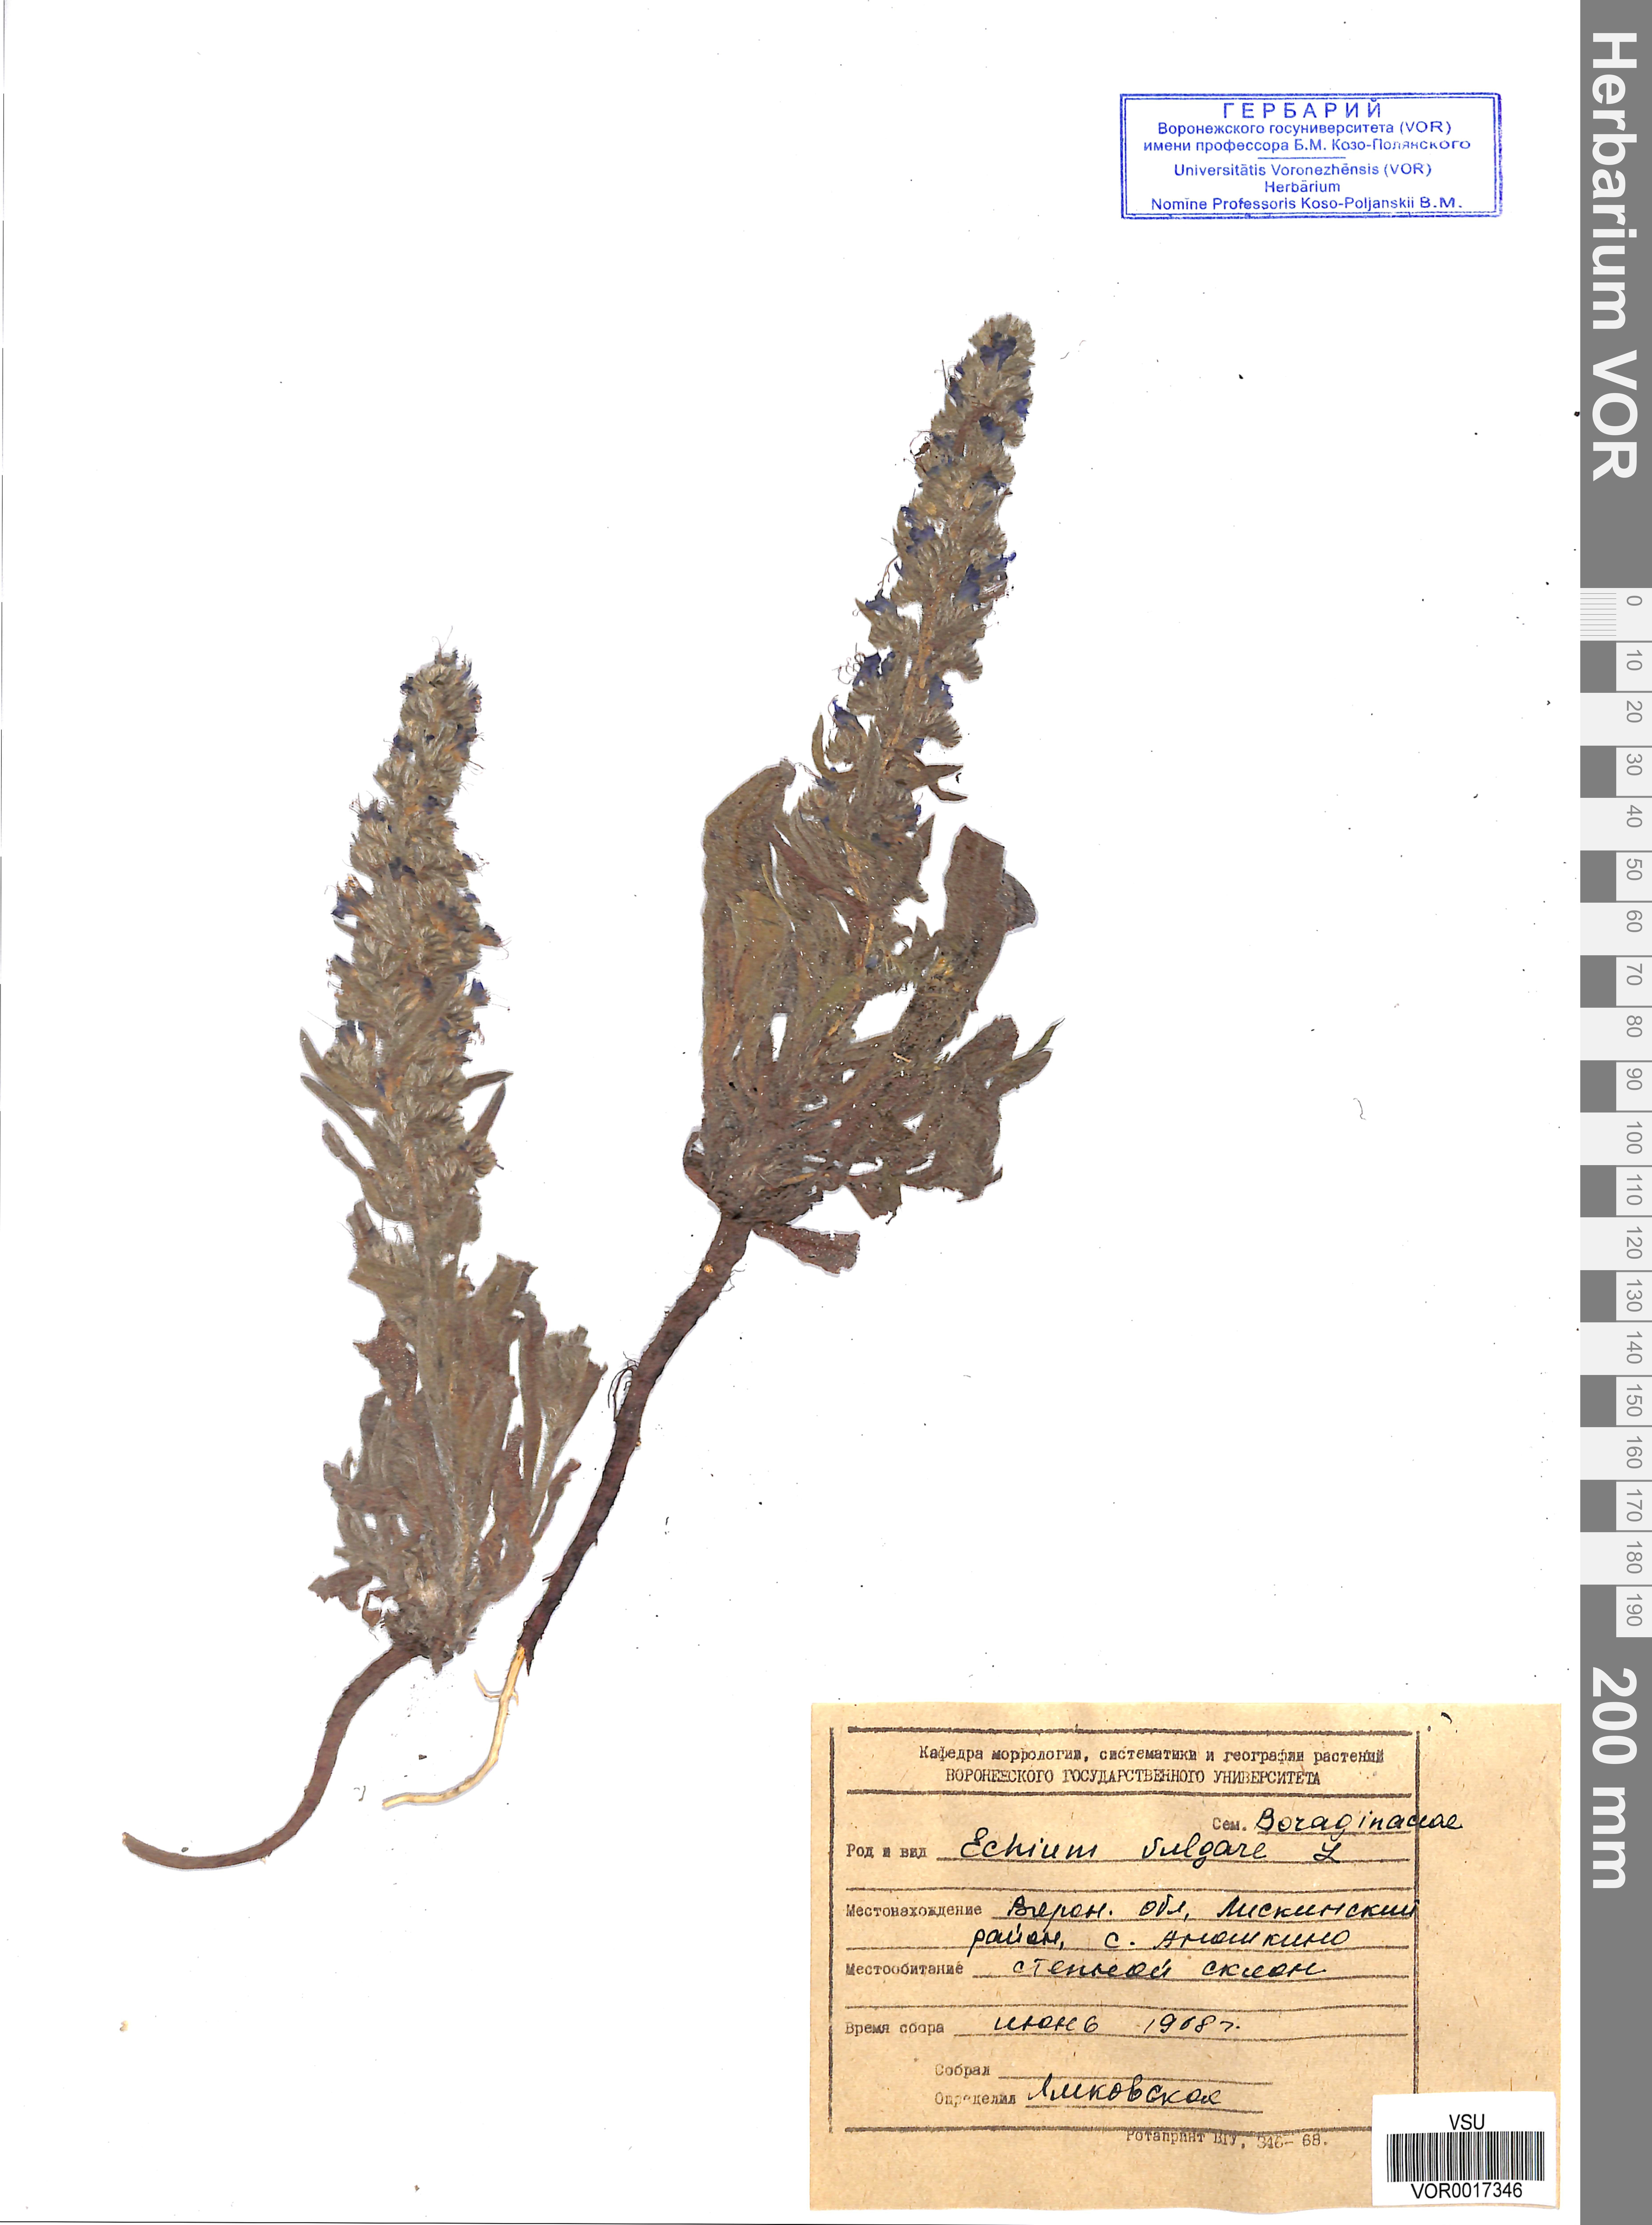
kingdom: Plantae
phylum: Tracheophyta
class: Magnoliopsida
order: Boraginales
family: Boraginaceae
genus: Echium
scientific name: Echium vulgare
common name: Common viper's bugloss
